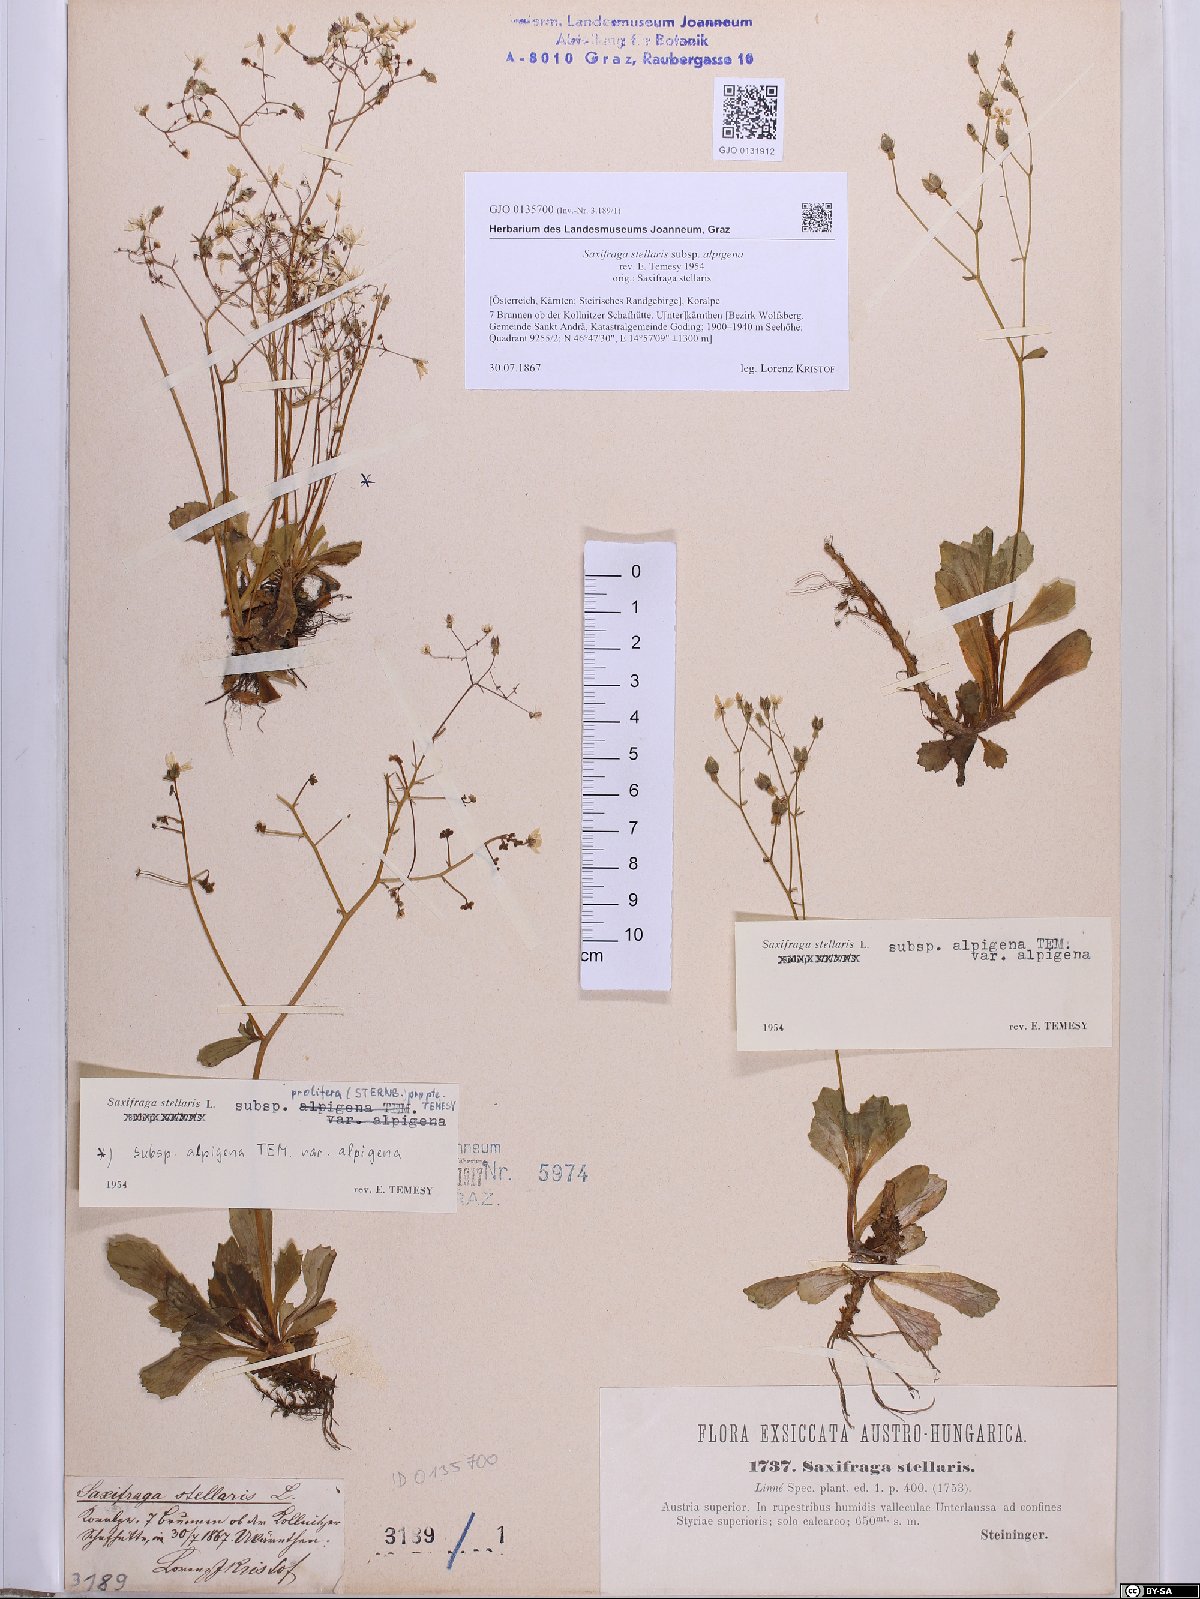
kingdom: Plantae
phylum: Tracheophyta
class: Magnoliopsida
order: Saxifragales
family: Saxifragaceae
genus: Micranthes
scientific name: Micranthes stellaris
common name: Starry saxifrage
